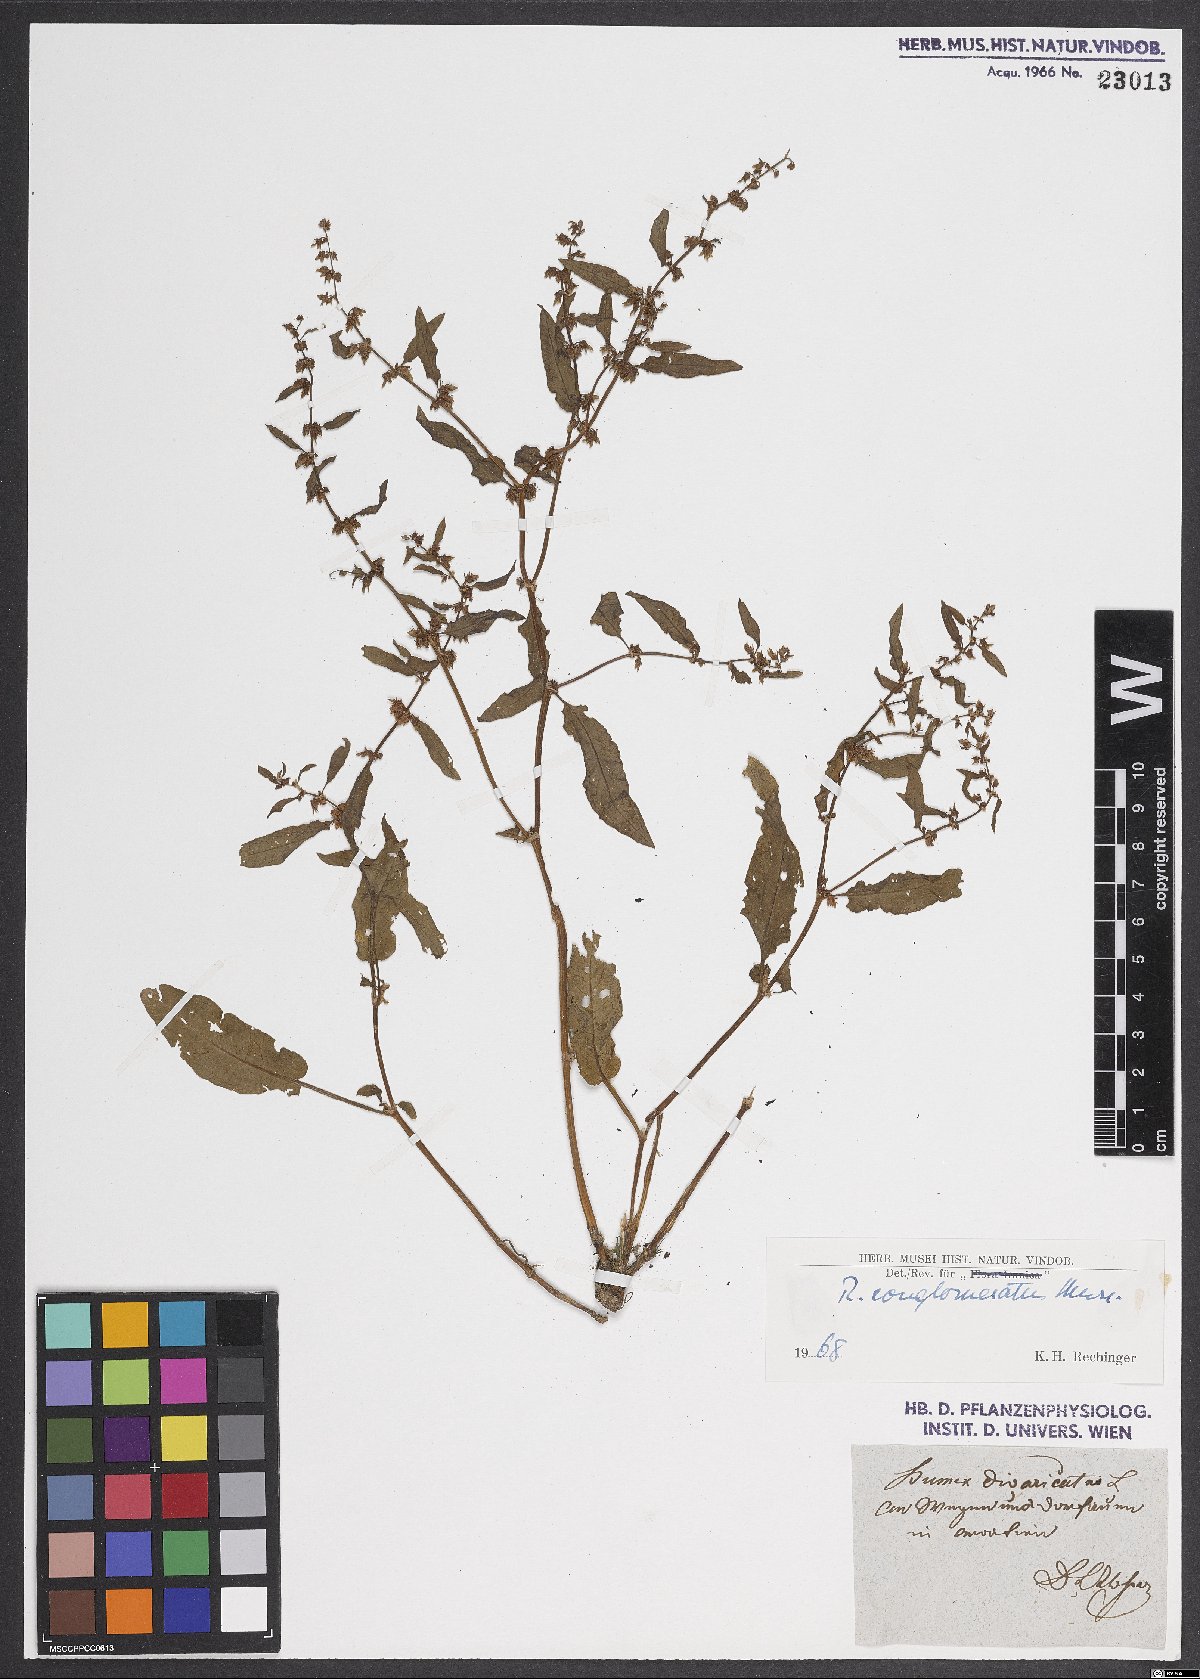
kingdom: Plantae
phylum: Tracheophyta
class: Magnoliopsida
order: Caryophyllales
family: Polygonaceae
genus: Rumex
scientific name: Rumex conglomeratus
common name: Clustered dock
